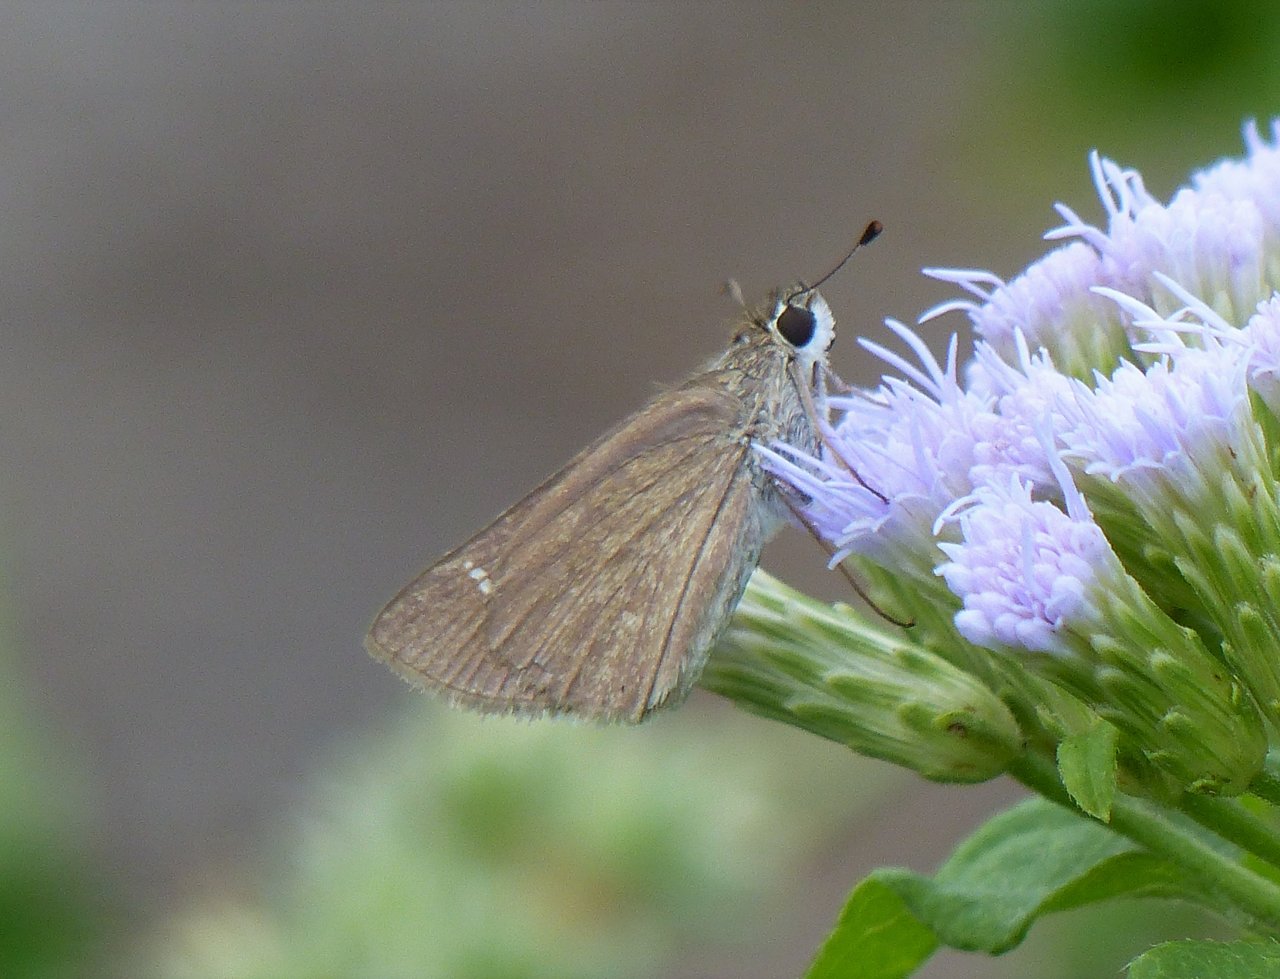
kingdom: Animalia
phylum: Arthropoda
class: Insecta
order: Lepidoptera
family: Hesperiidae
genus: Lerodea
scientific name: Lerodea eufala
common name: Eufala Skipper
